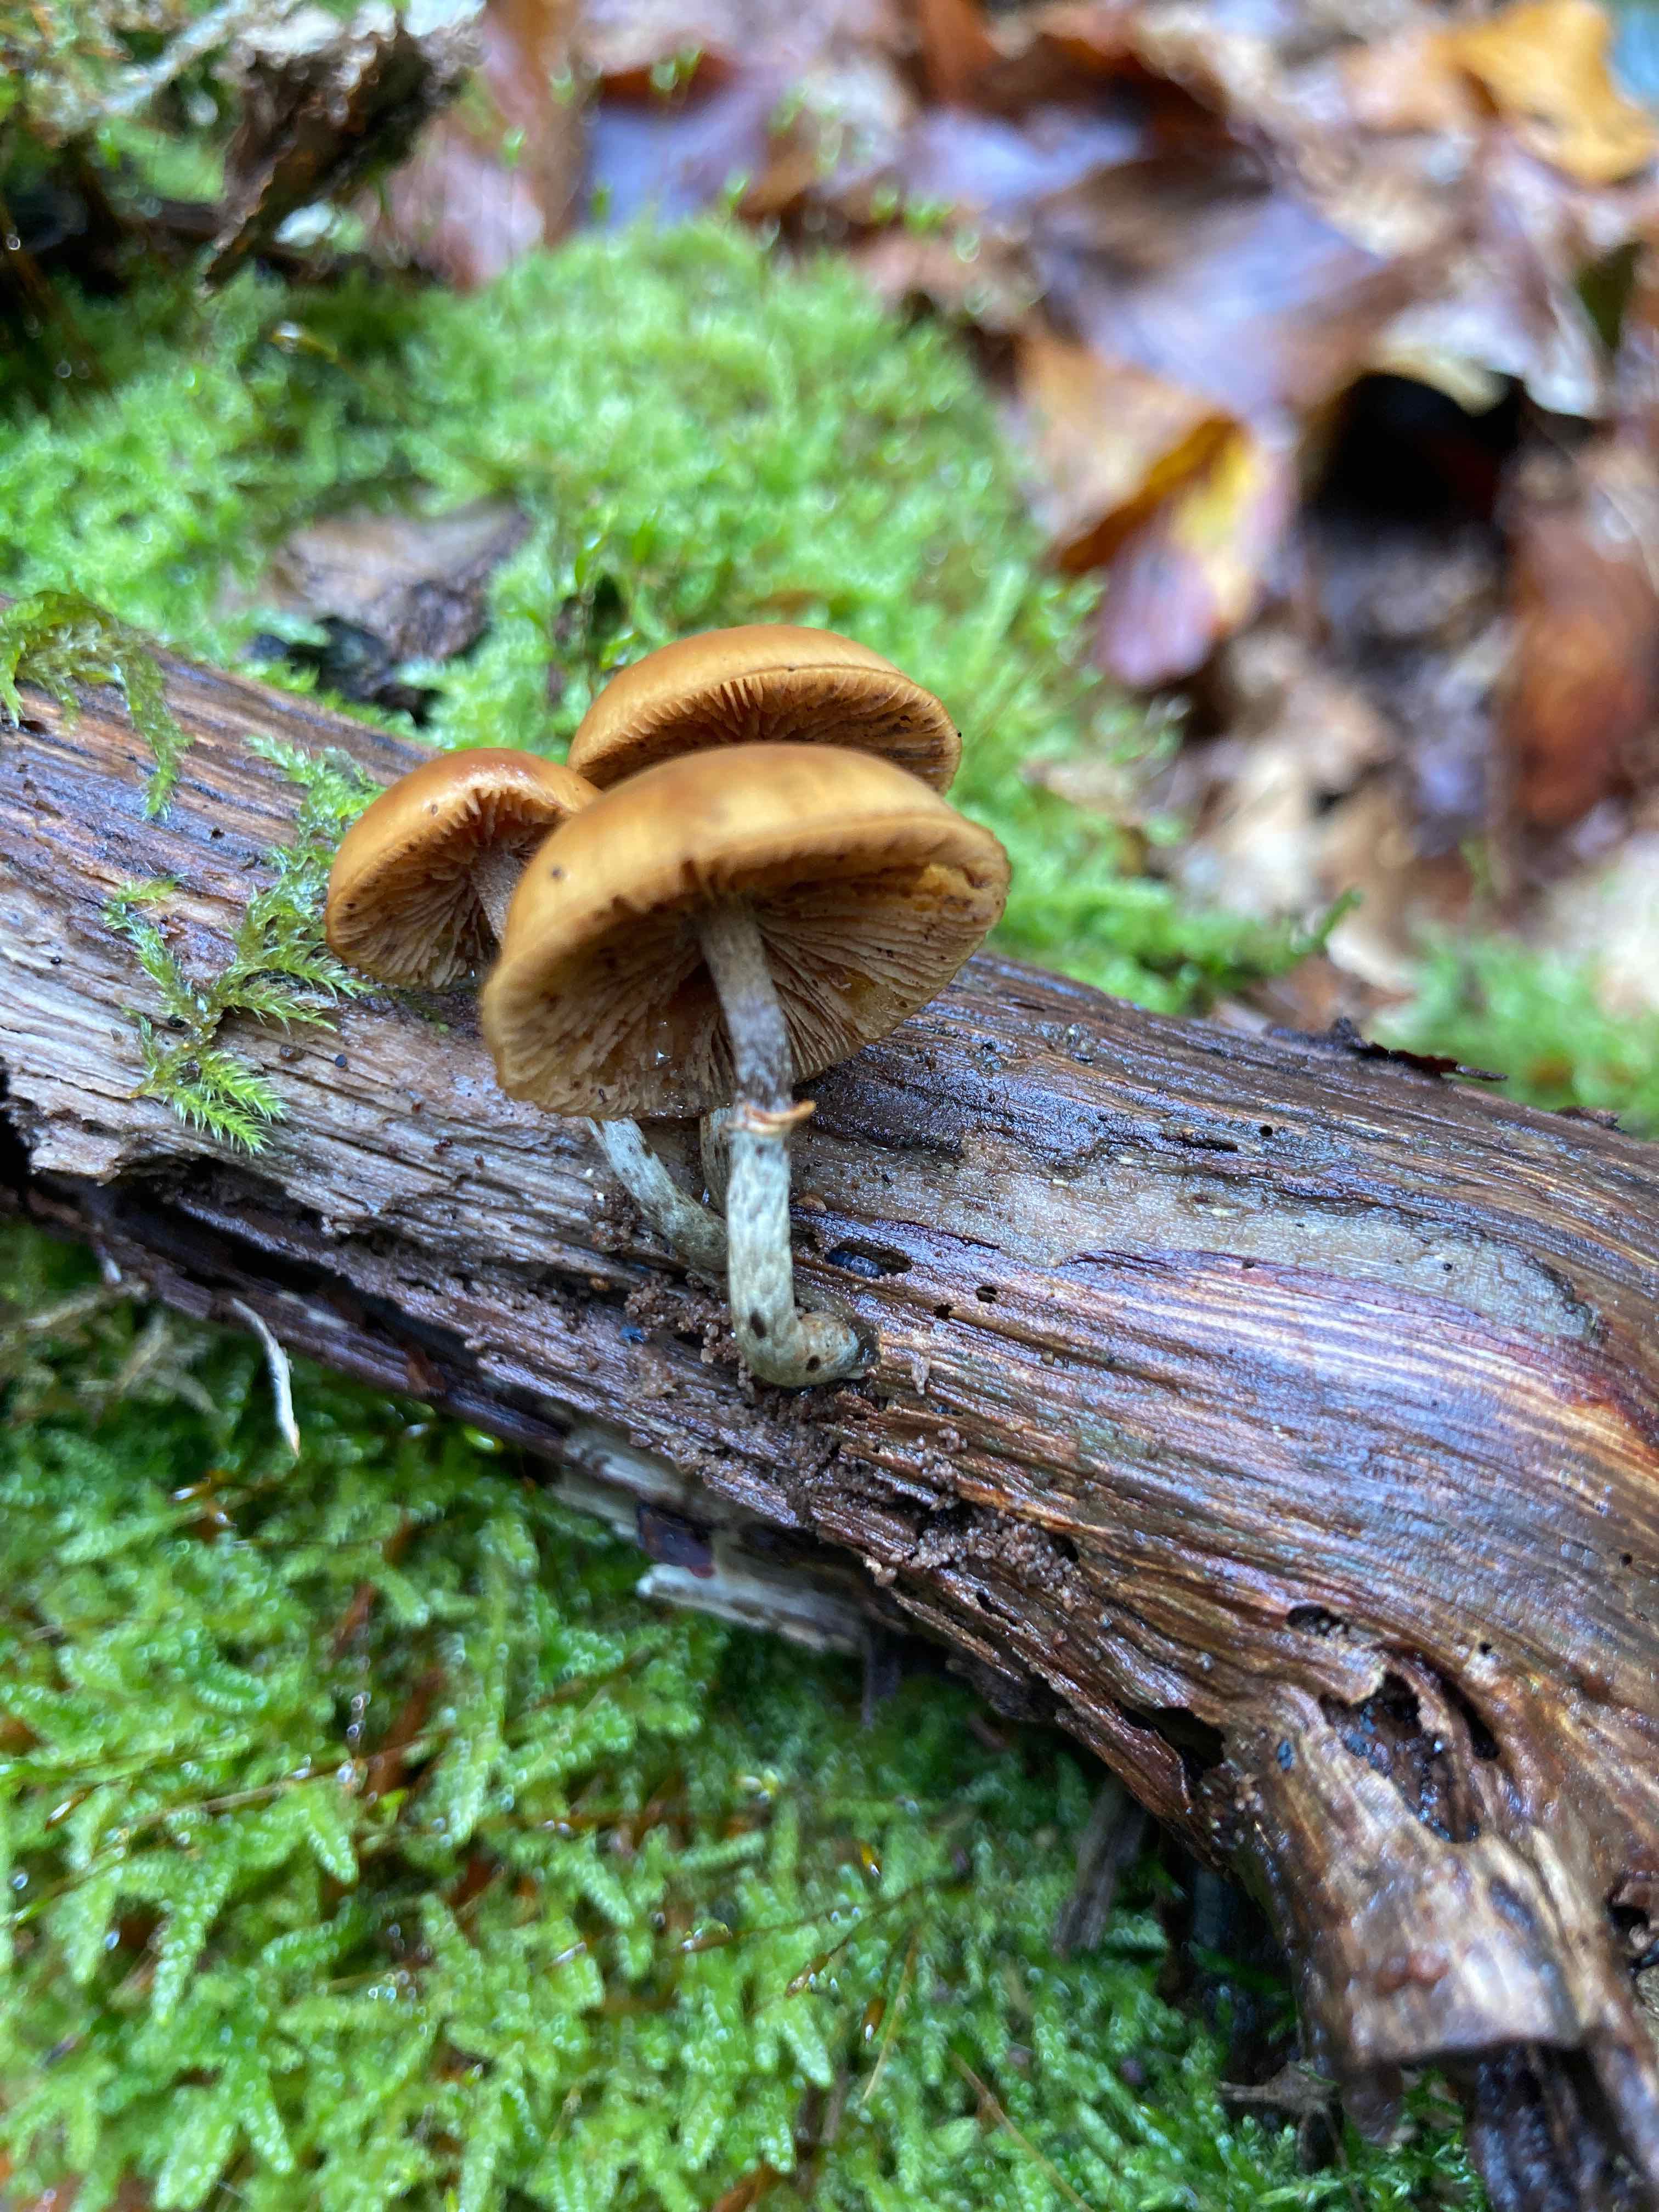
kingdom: Fungi
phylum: Basidiomycota
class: Agaricomycetes
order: Agaricales
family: Hymenogastraceae
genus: Galerina
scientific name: Galerina marginata
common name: randbæltet hjelmhat
